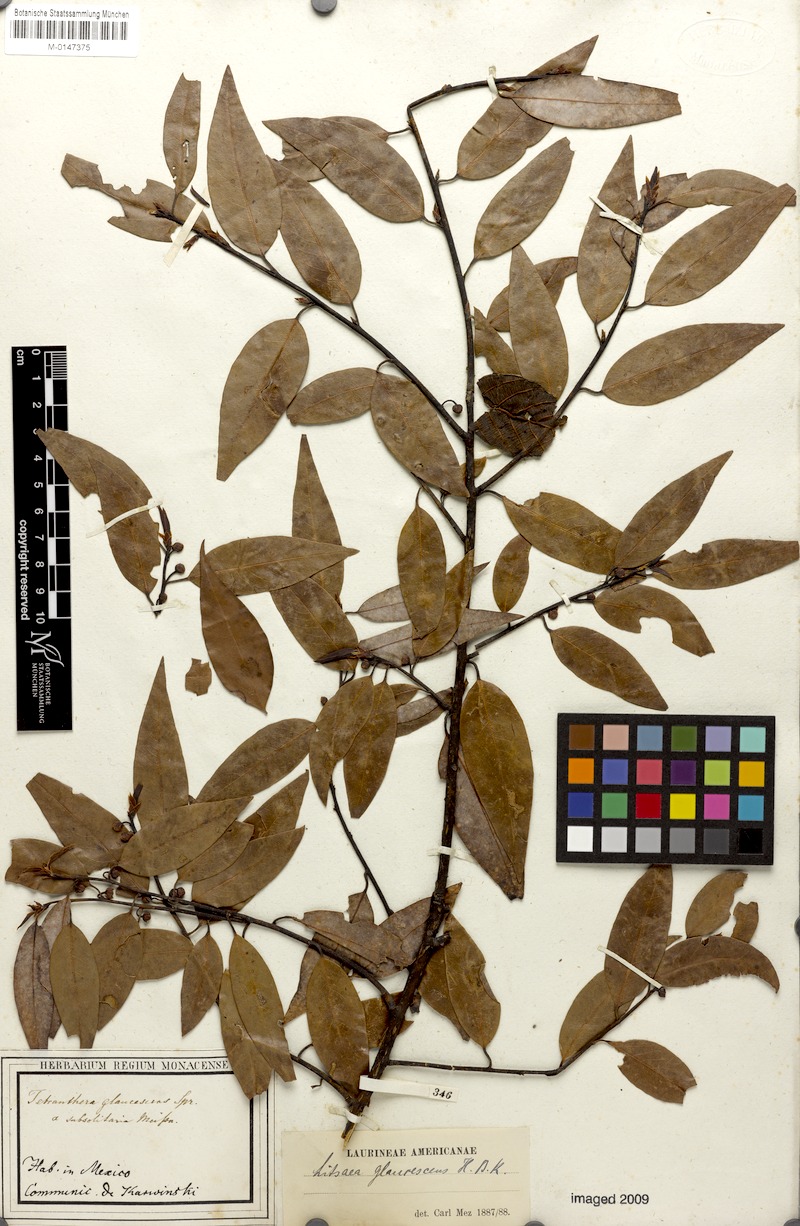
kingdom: Plantae
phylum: Tracheophyta
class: Magnoliopsida
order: Laurales
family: Lauraceae
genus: Licaria
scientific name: Licaria triandra
